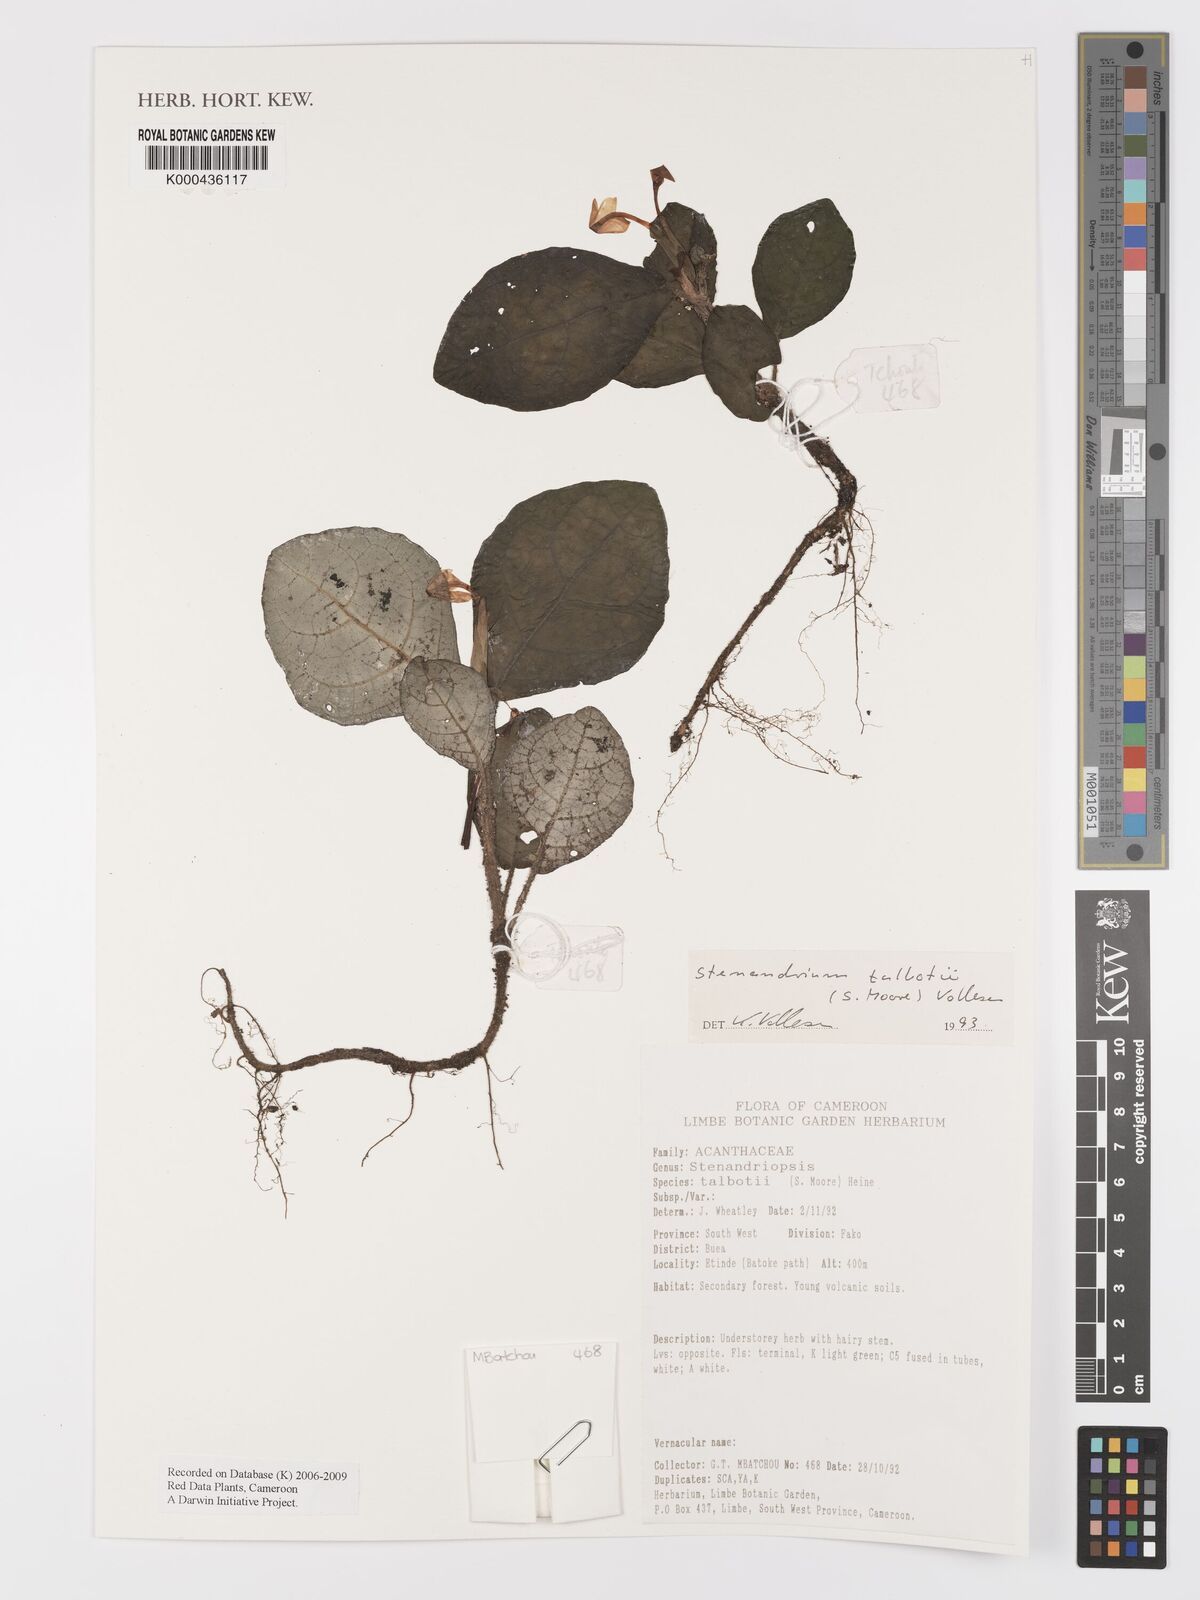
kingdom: Plantae
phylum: Tracheophyta
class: Magnoliopsida
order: Lamiales
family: Acanthaceae
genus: Stenandriopsis
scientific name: Stenandriopsis talbotii
